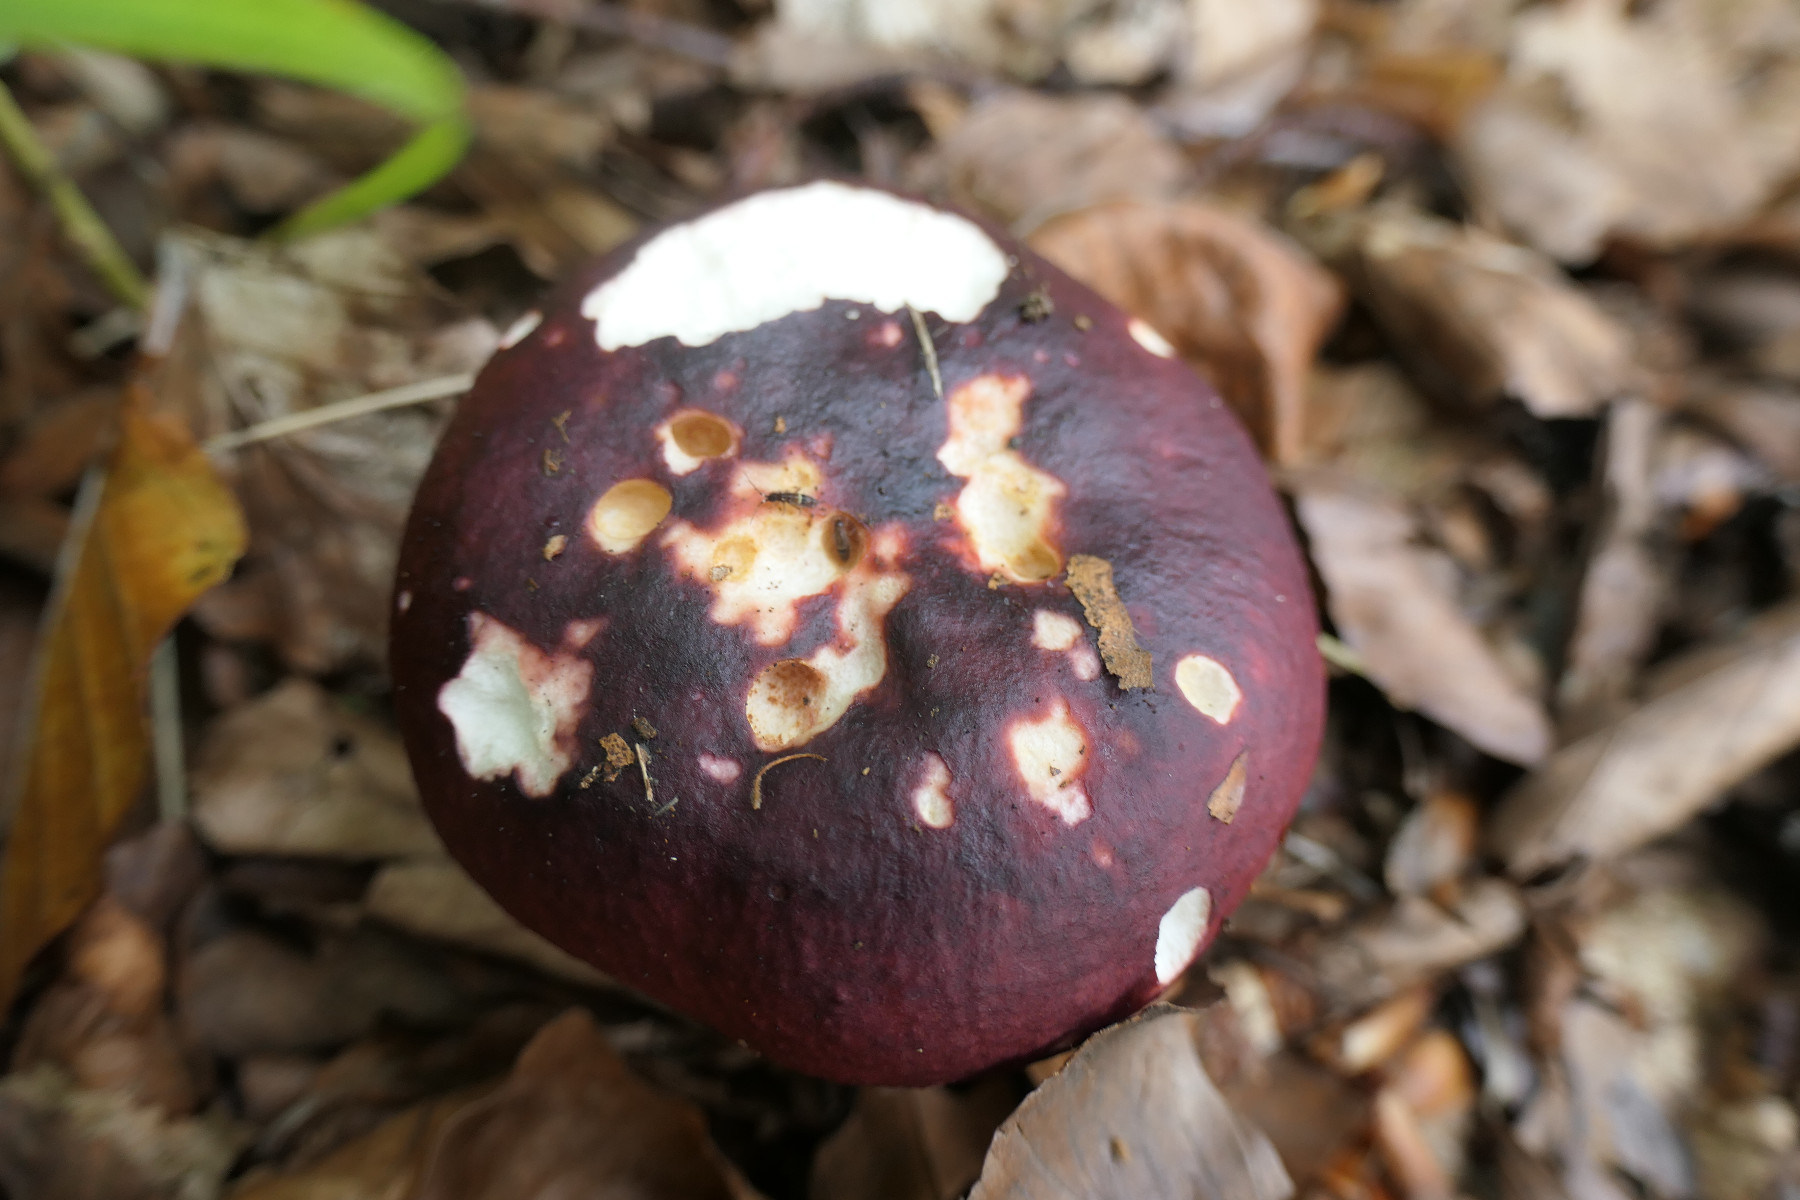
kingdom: Fungi
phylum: Basidiomycota
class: Agaricomycetes
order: Russulales
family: Russulaceae
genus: Russula
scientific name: Russula atropurpurea
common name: purpurbroget skørhat
